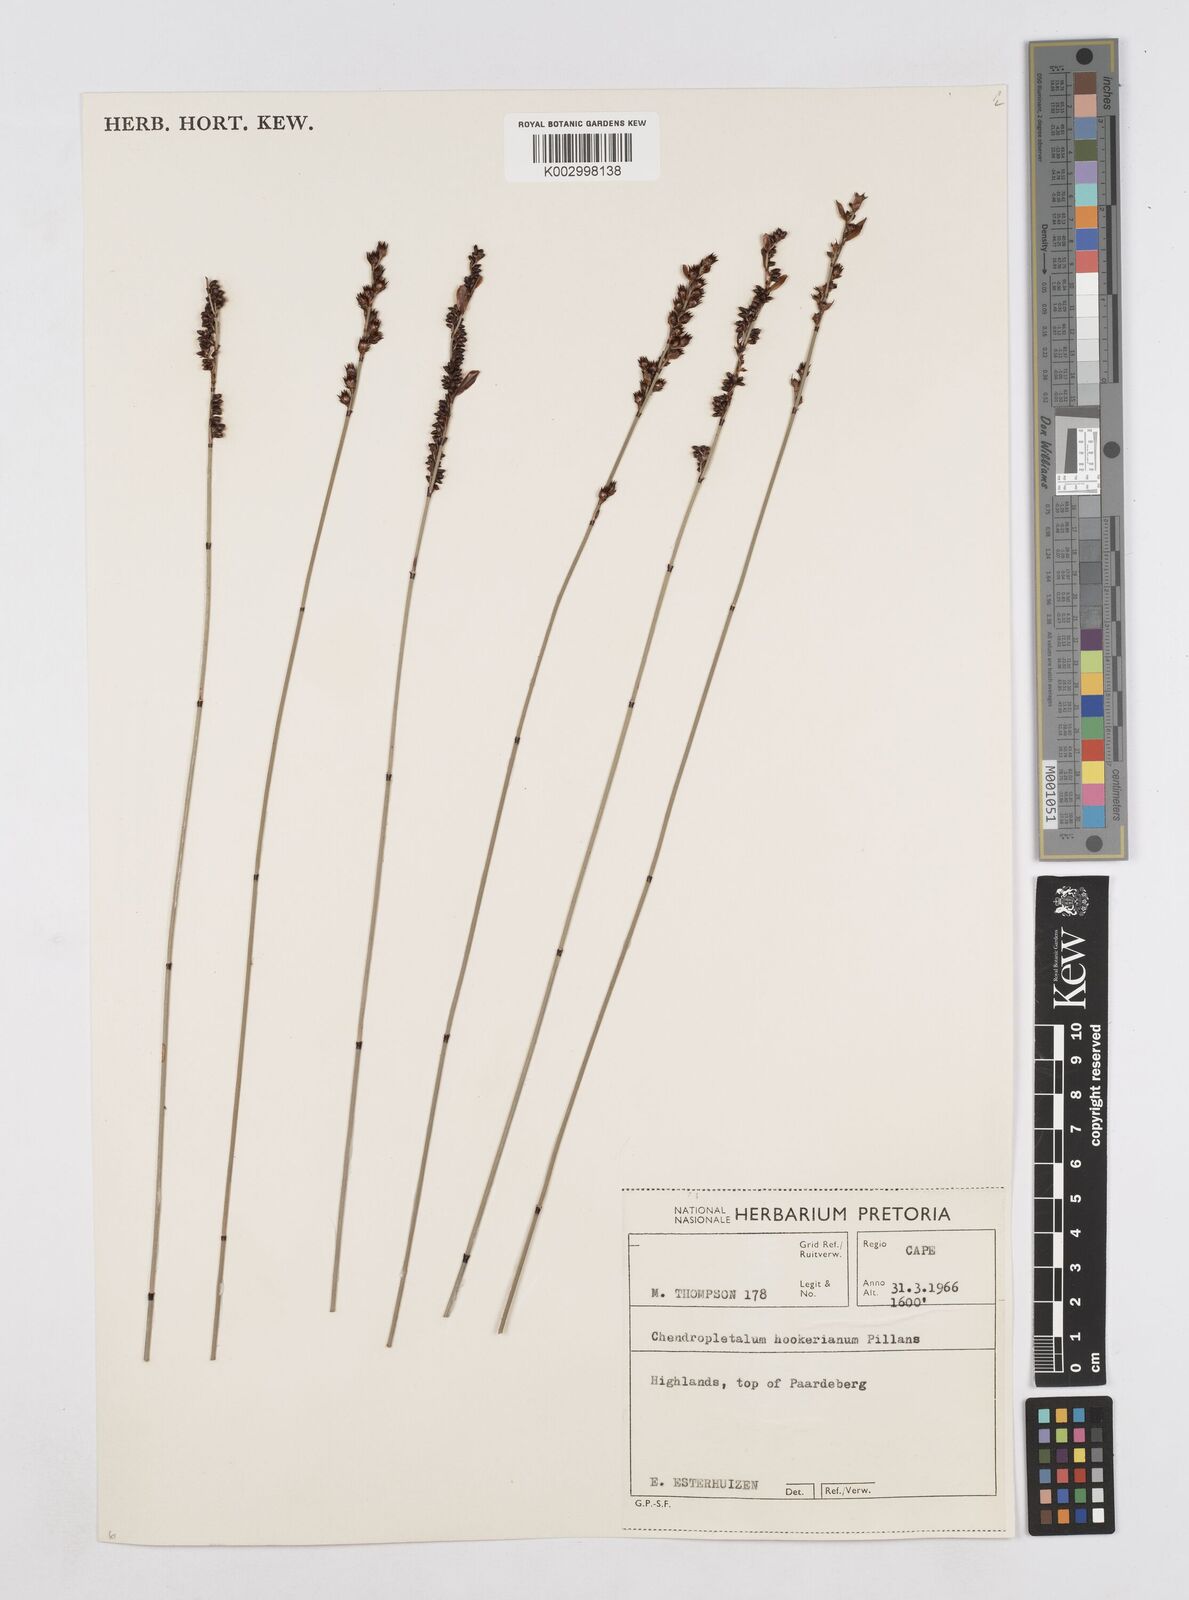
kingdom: Plantae
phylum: Tracheophyta
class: Liliopsida
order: Poales
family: Restionaceae
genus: Elegia
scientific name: Elegia hookeriana
